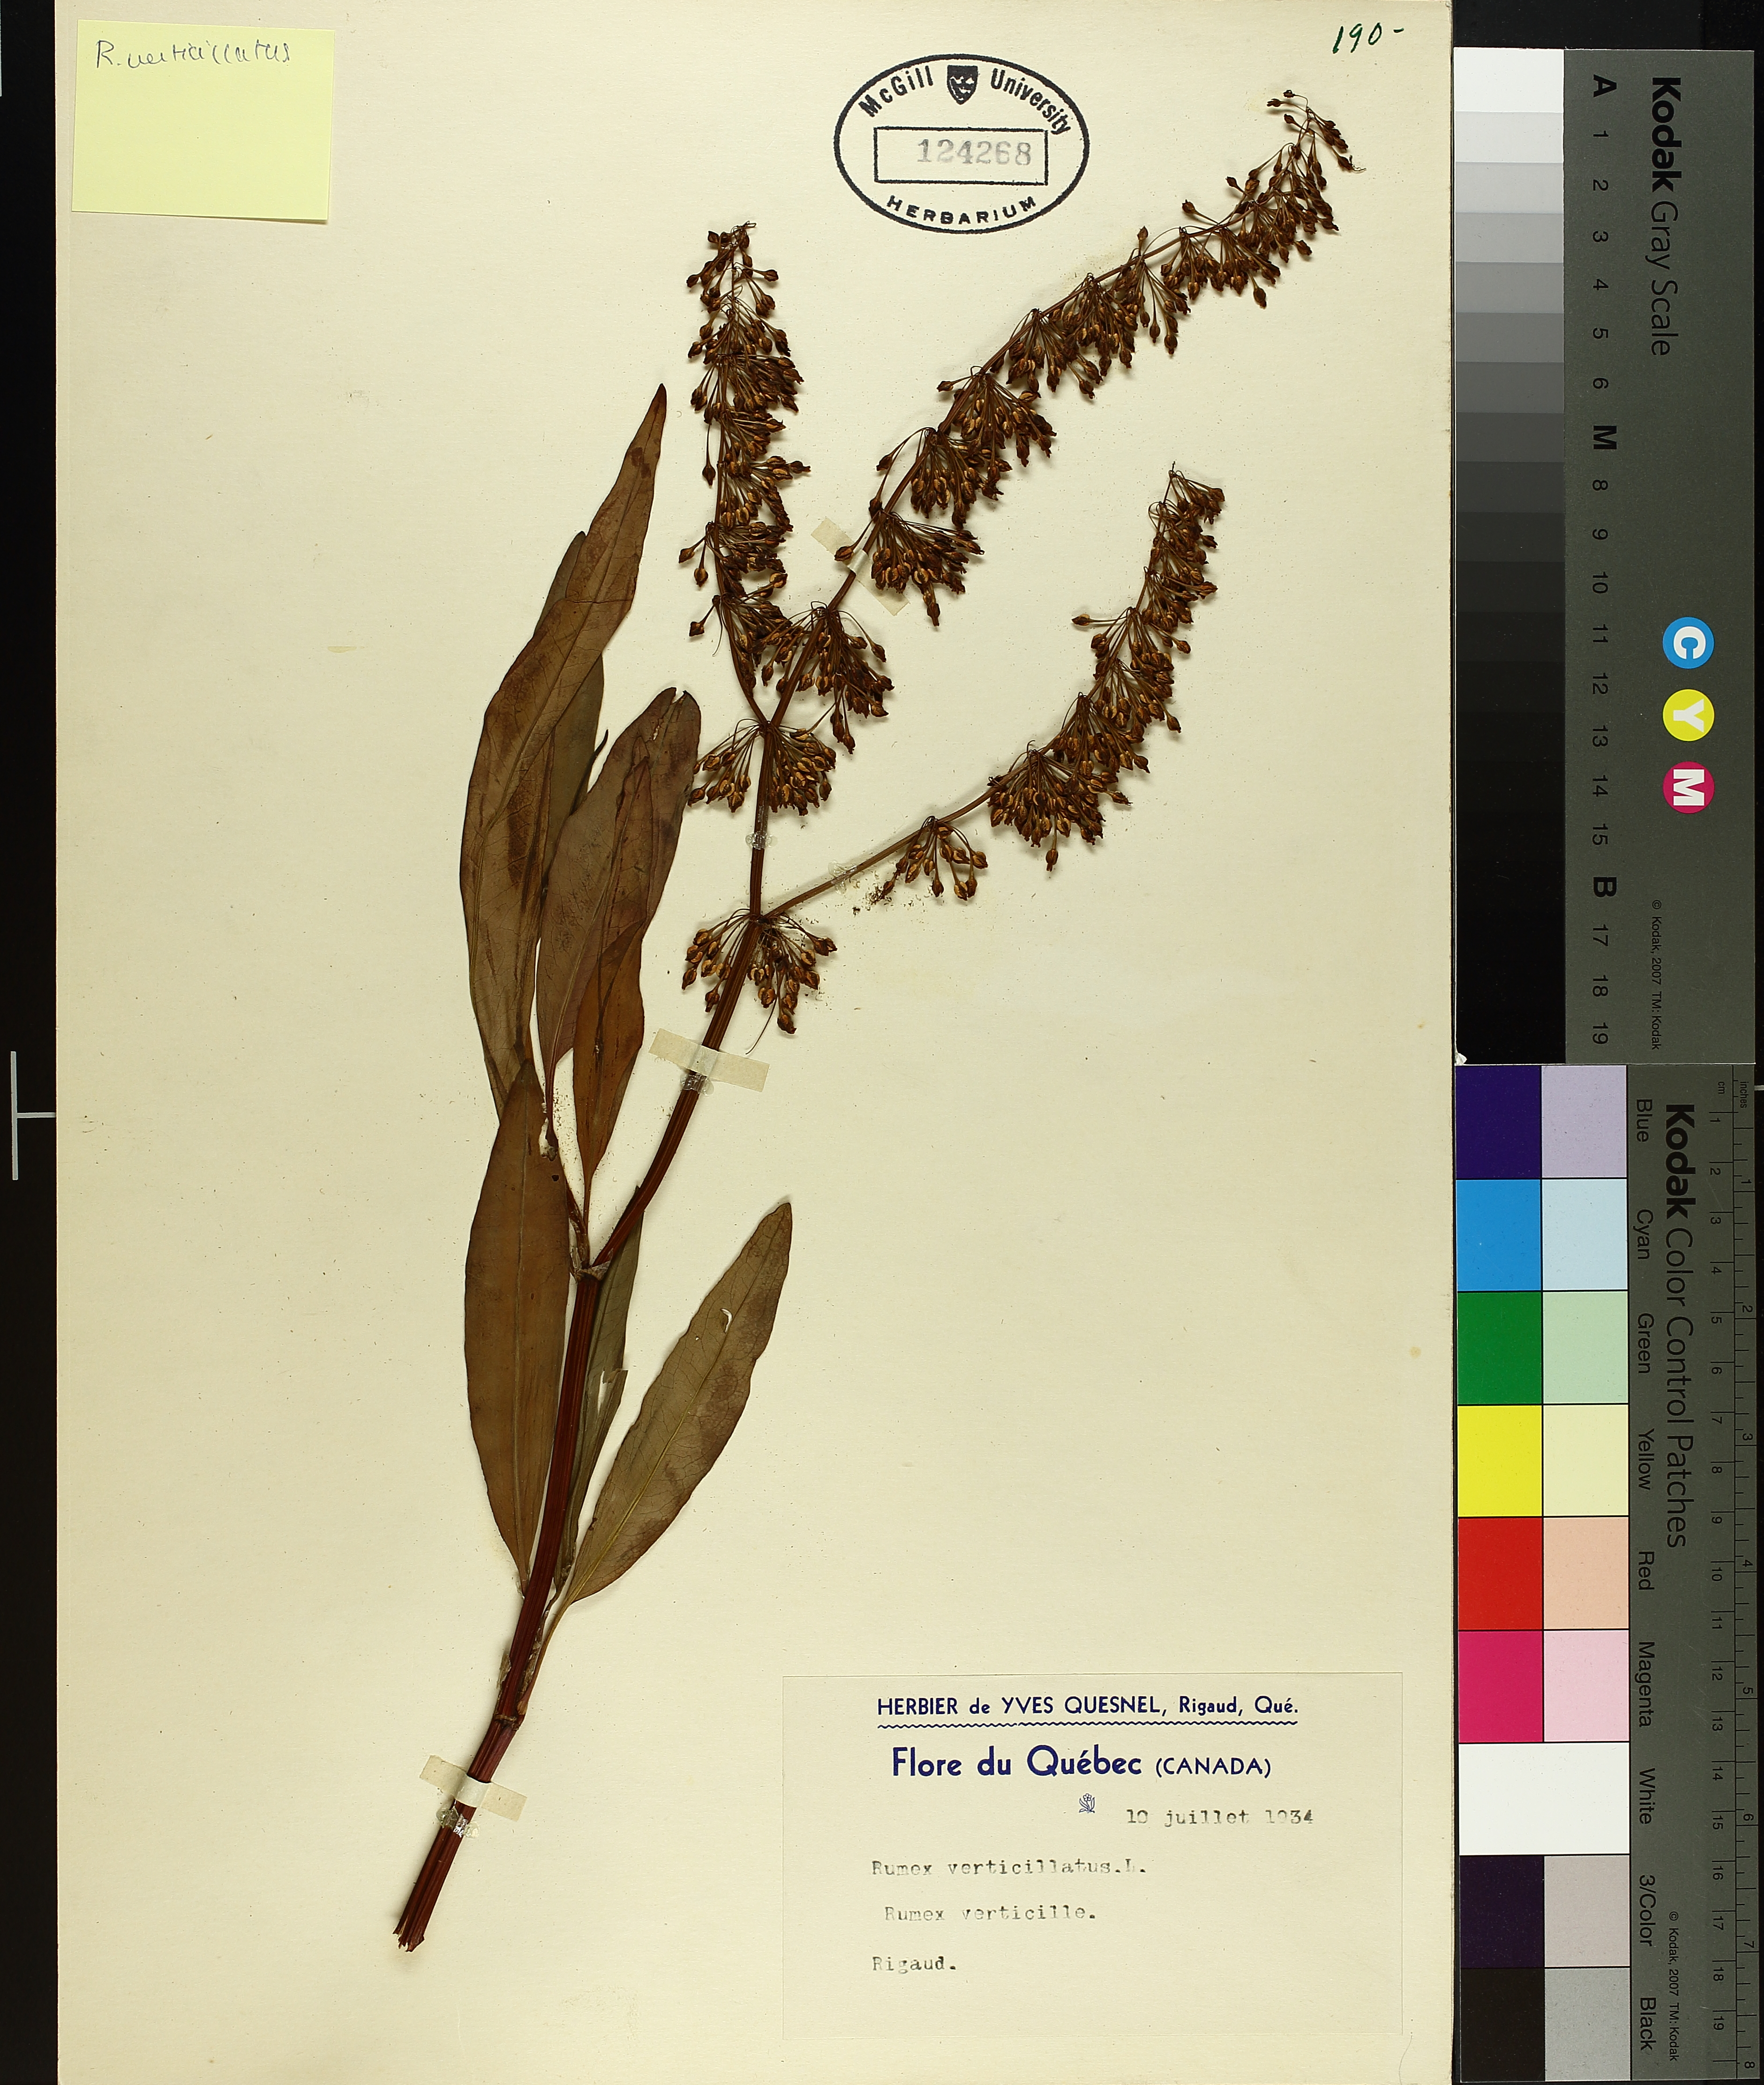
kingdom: Plantae
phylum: Tracheophyta
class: Magnoliopsida
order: Caryophyllales
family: Polygonaceae
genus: Rumex
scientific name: Rumex verticillatus
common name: Swamp dock
